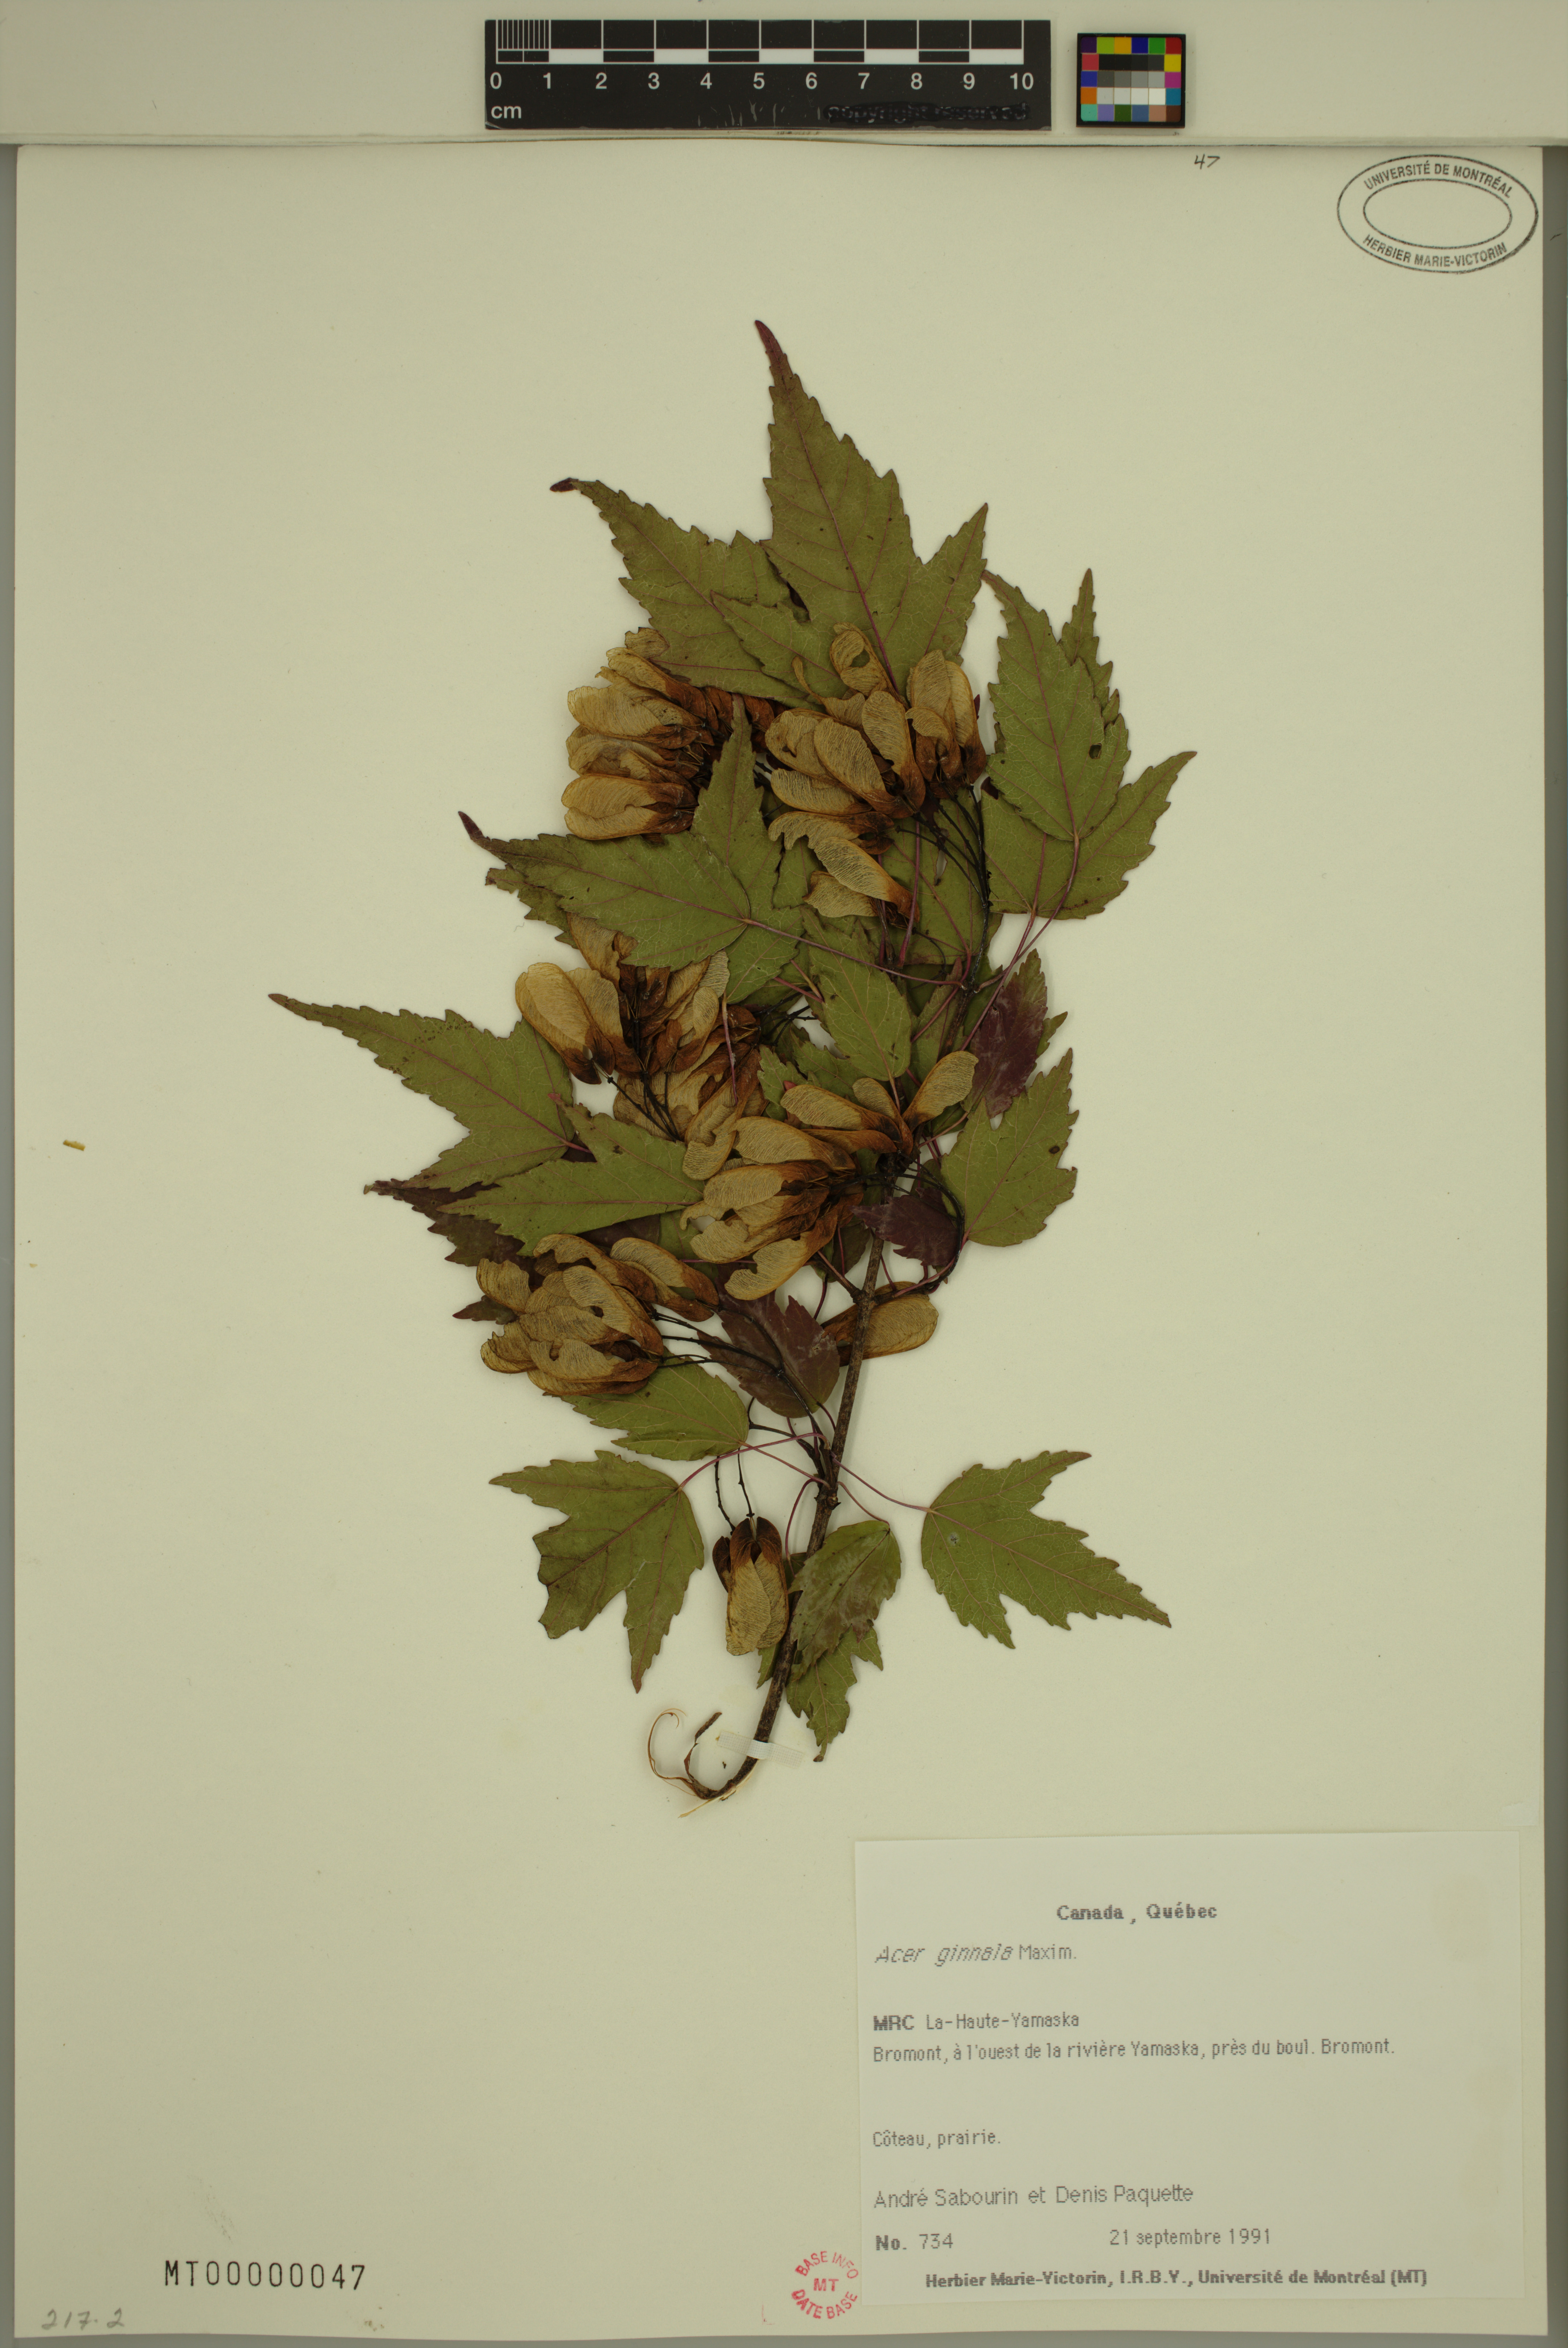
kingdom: Plantae
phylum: Tracheophyta
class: Magnoliopsida
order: Sapindales
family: Sapindaceae
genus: Acer
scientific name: Acer tataricum
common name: Tartar maple
